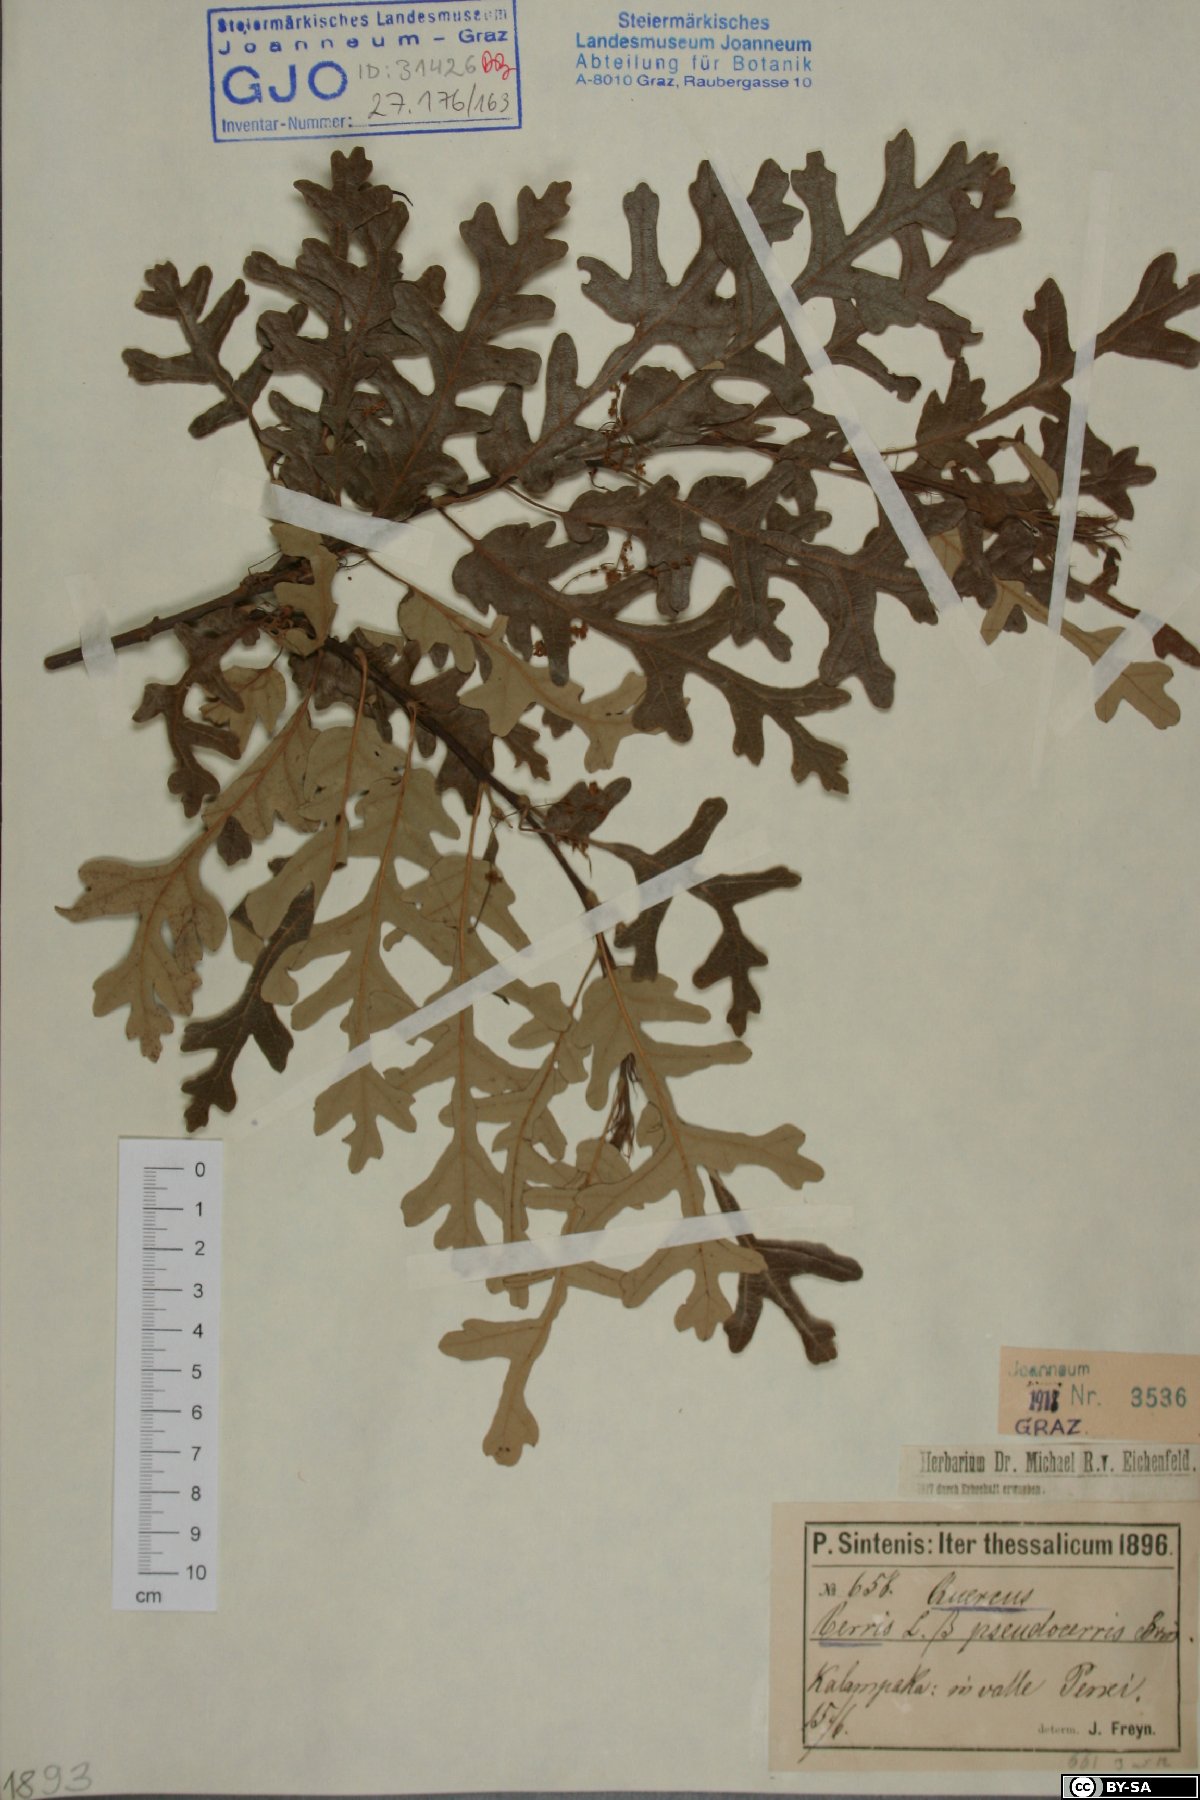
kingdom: Plantae
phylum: Tracheophyta
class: Magnoliopsida
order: Fagales
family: Fagaceae
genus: Quercus
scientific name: Quercus cerris
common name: Turkey oak
